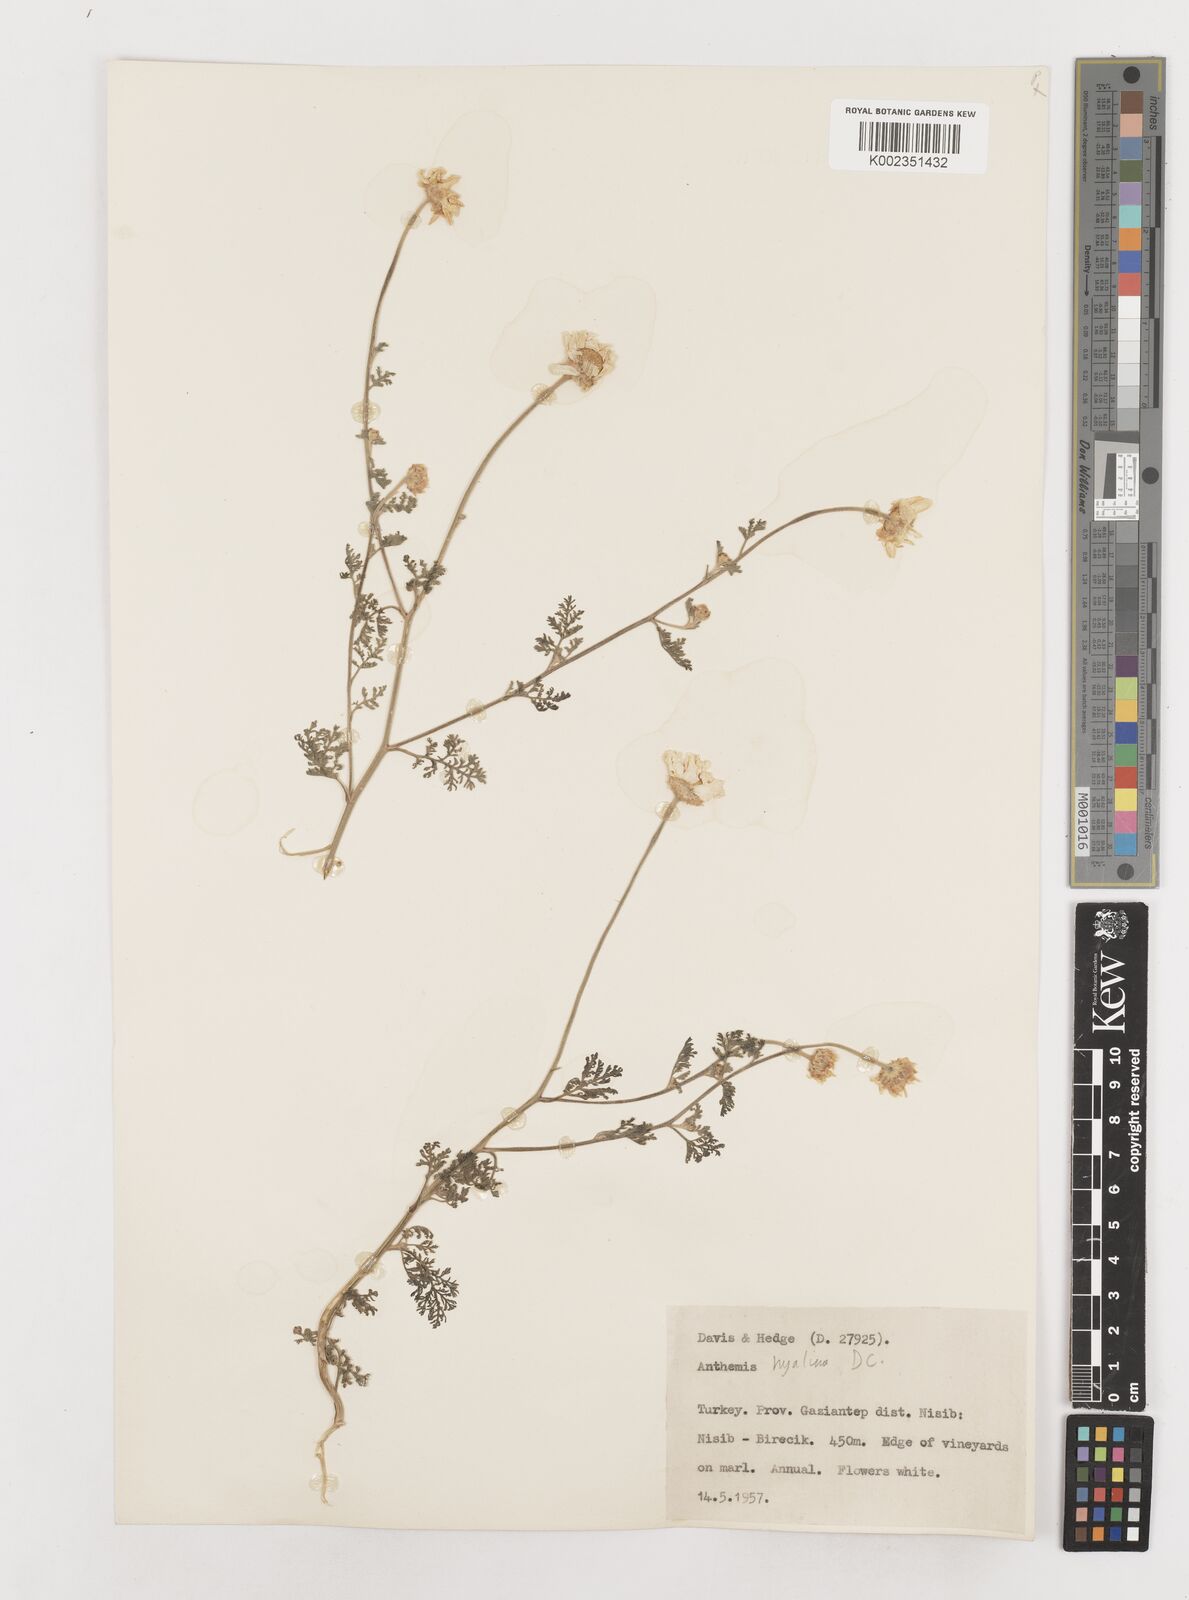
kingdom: Plantae
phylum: Tracheophyta
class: Magnoliopsida
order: Asterales
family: Asteraceae
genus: Anthemis
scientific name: Anthemis hyalina
